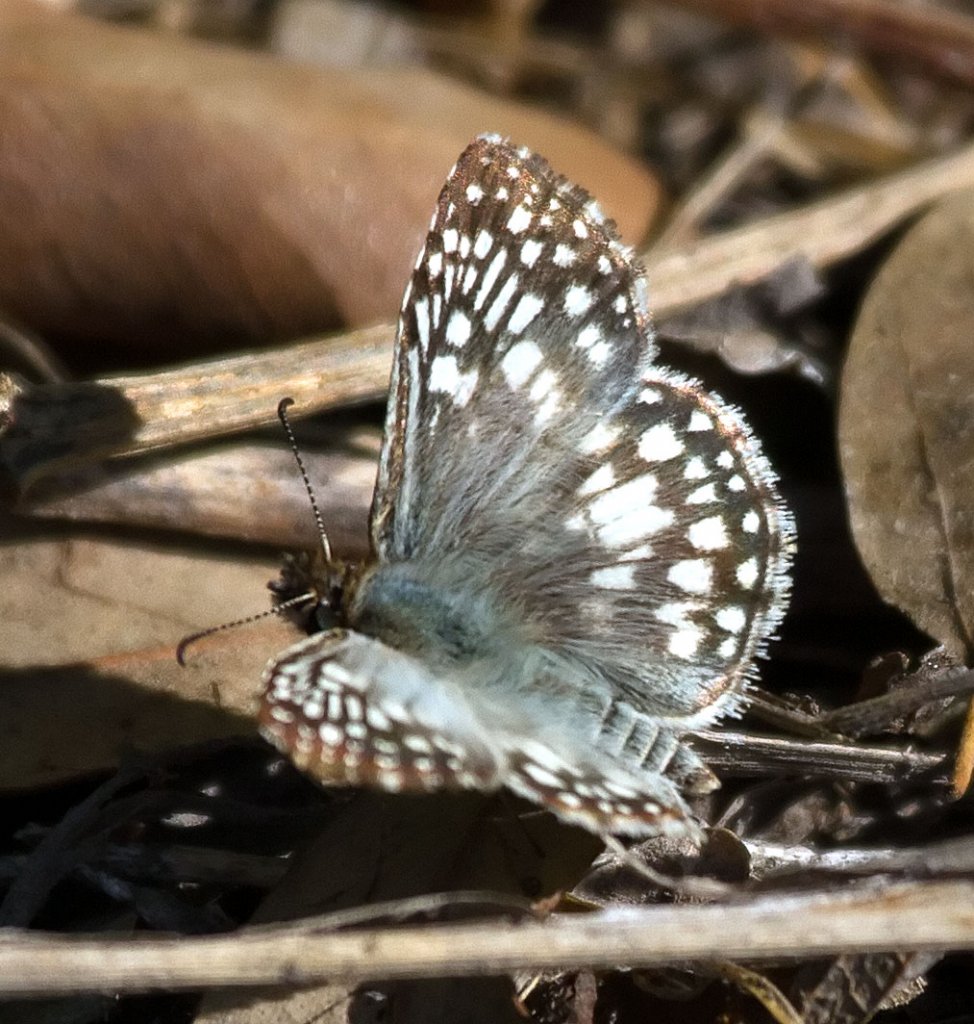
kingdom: Animalia
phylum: Arthropoda
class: Insecta
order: Lepidoptera
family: Hesperiidae
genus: Pyrgus
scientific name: Pyrgus oileus
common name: Tropical Checkered-Skipper
